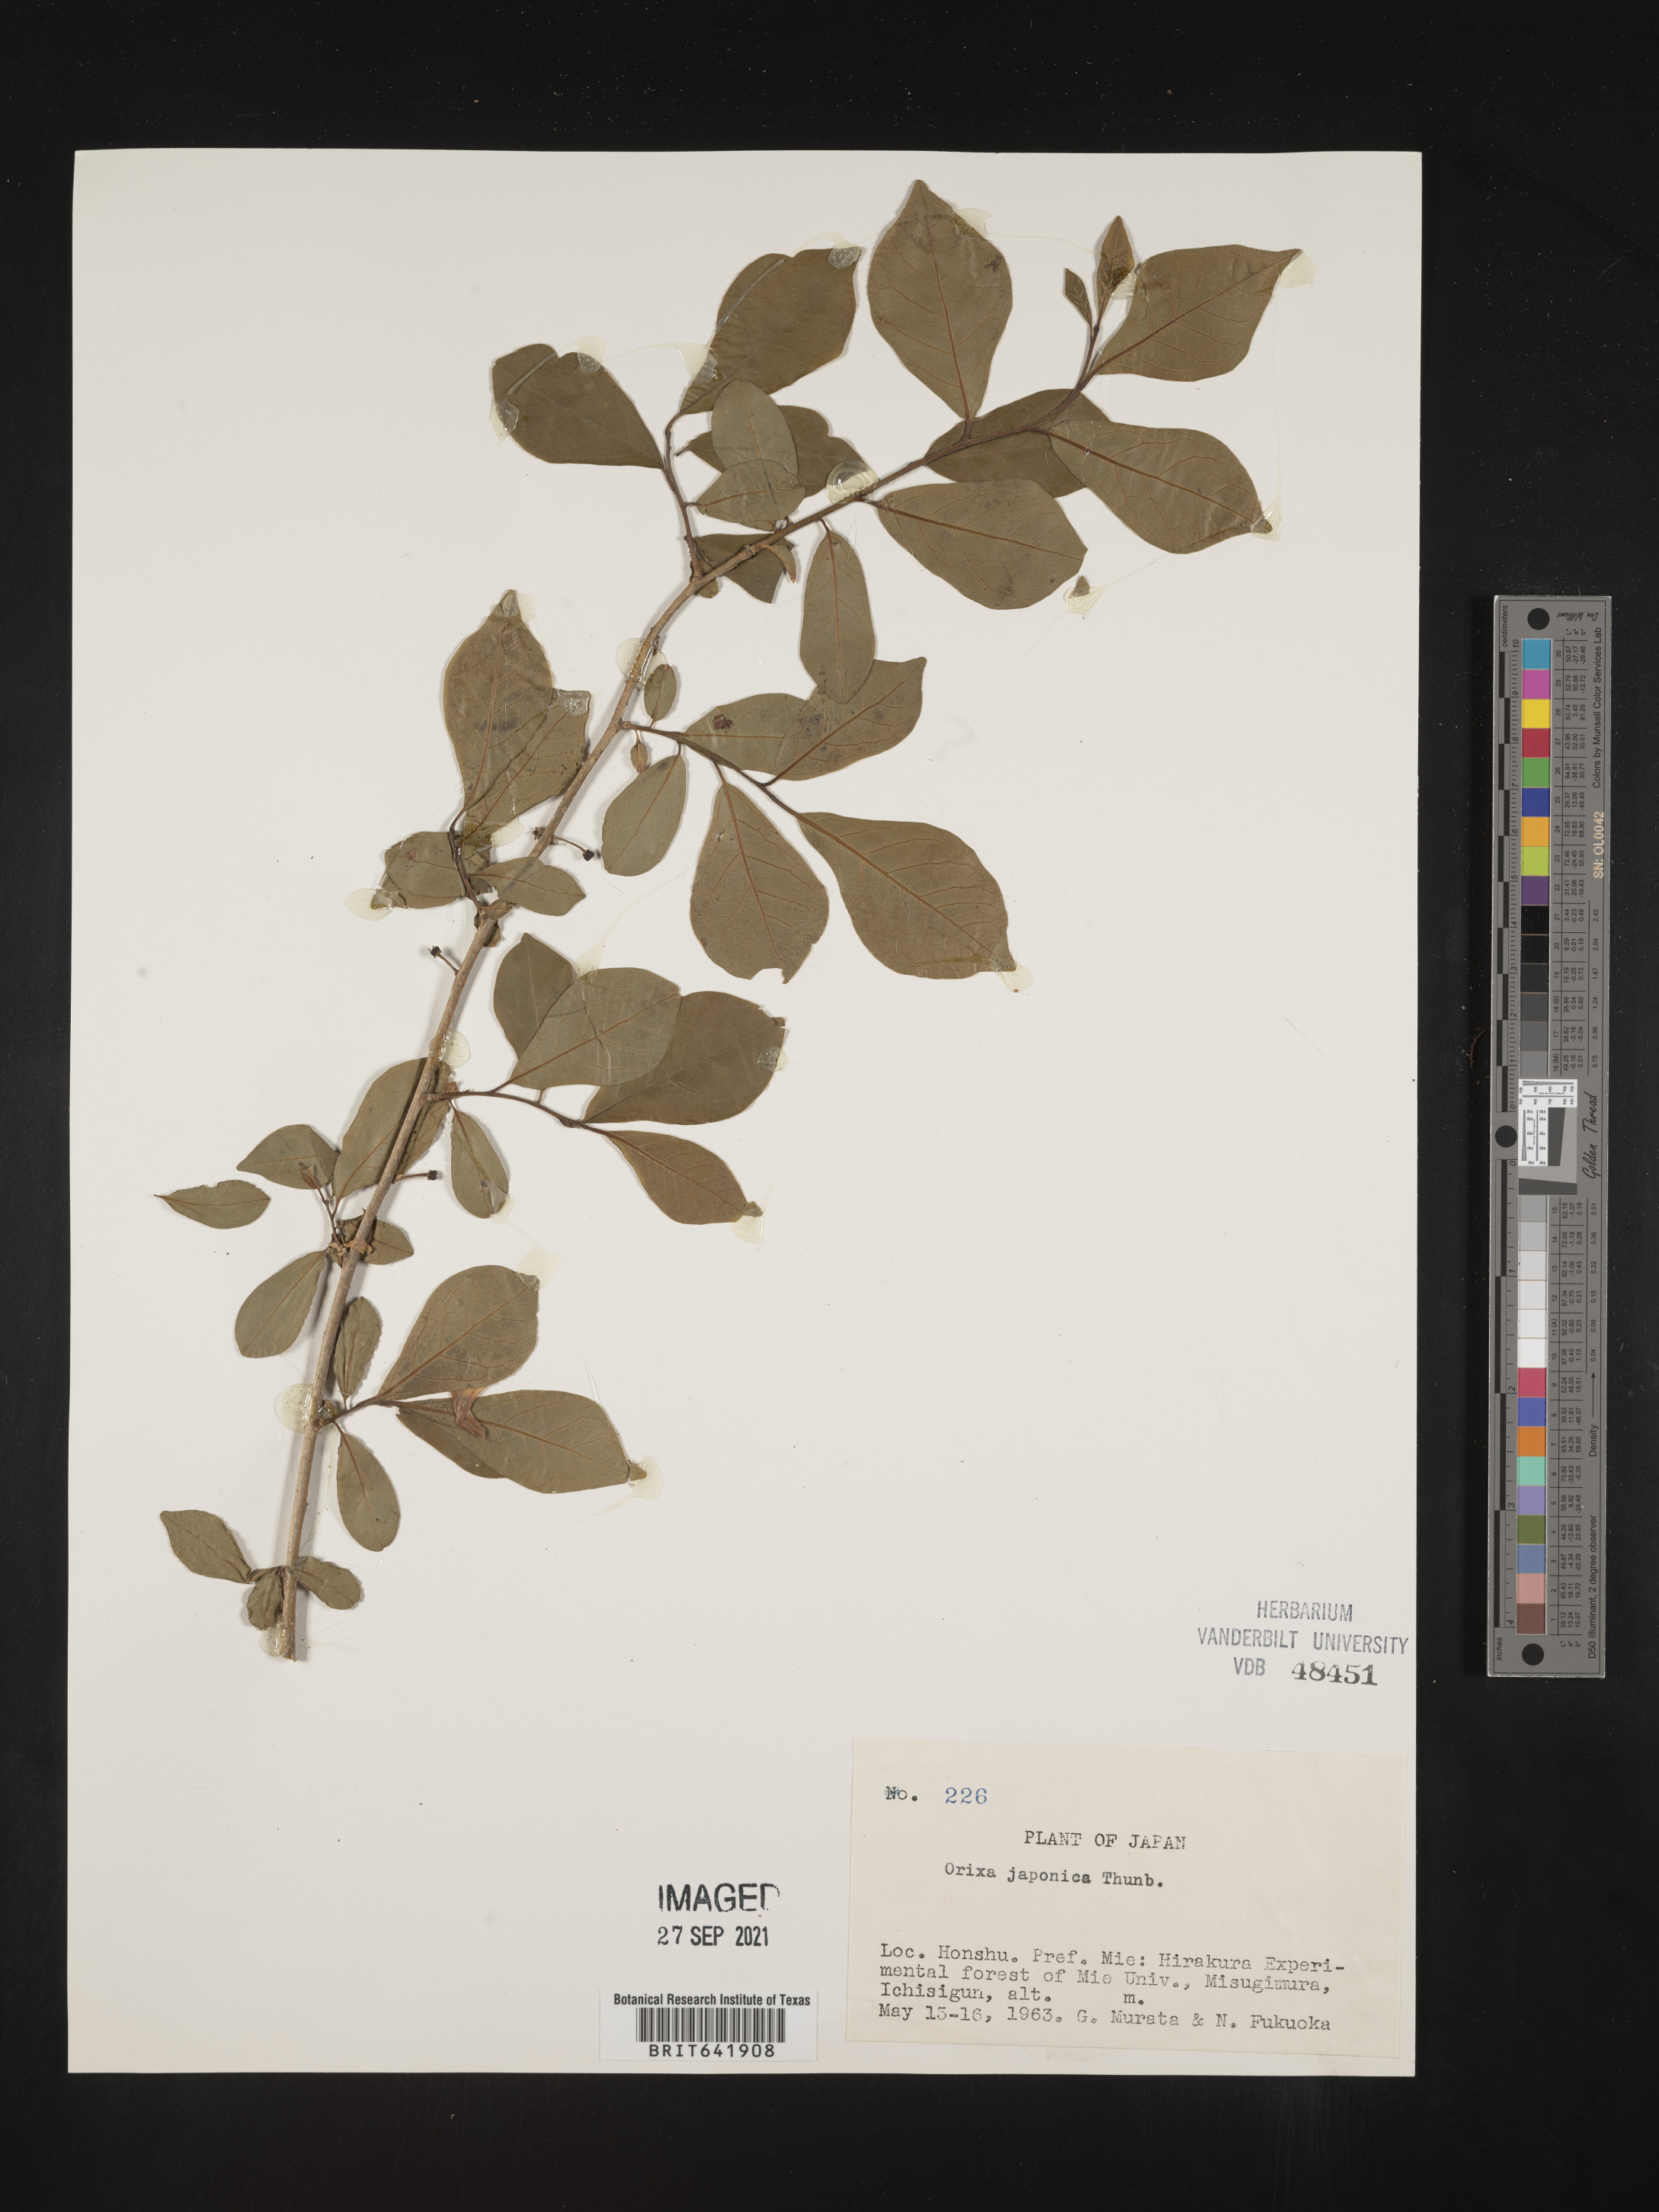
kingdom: Plantae
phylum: Tracheophyta
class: Magnoliopsida
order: Sapindales
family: Rutaceae
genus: Orixa
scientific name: Orixa
